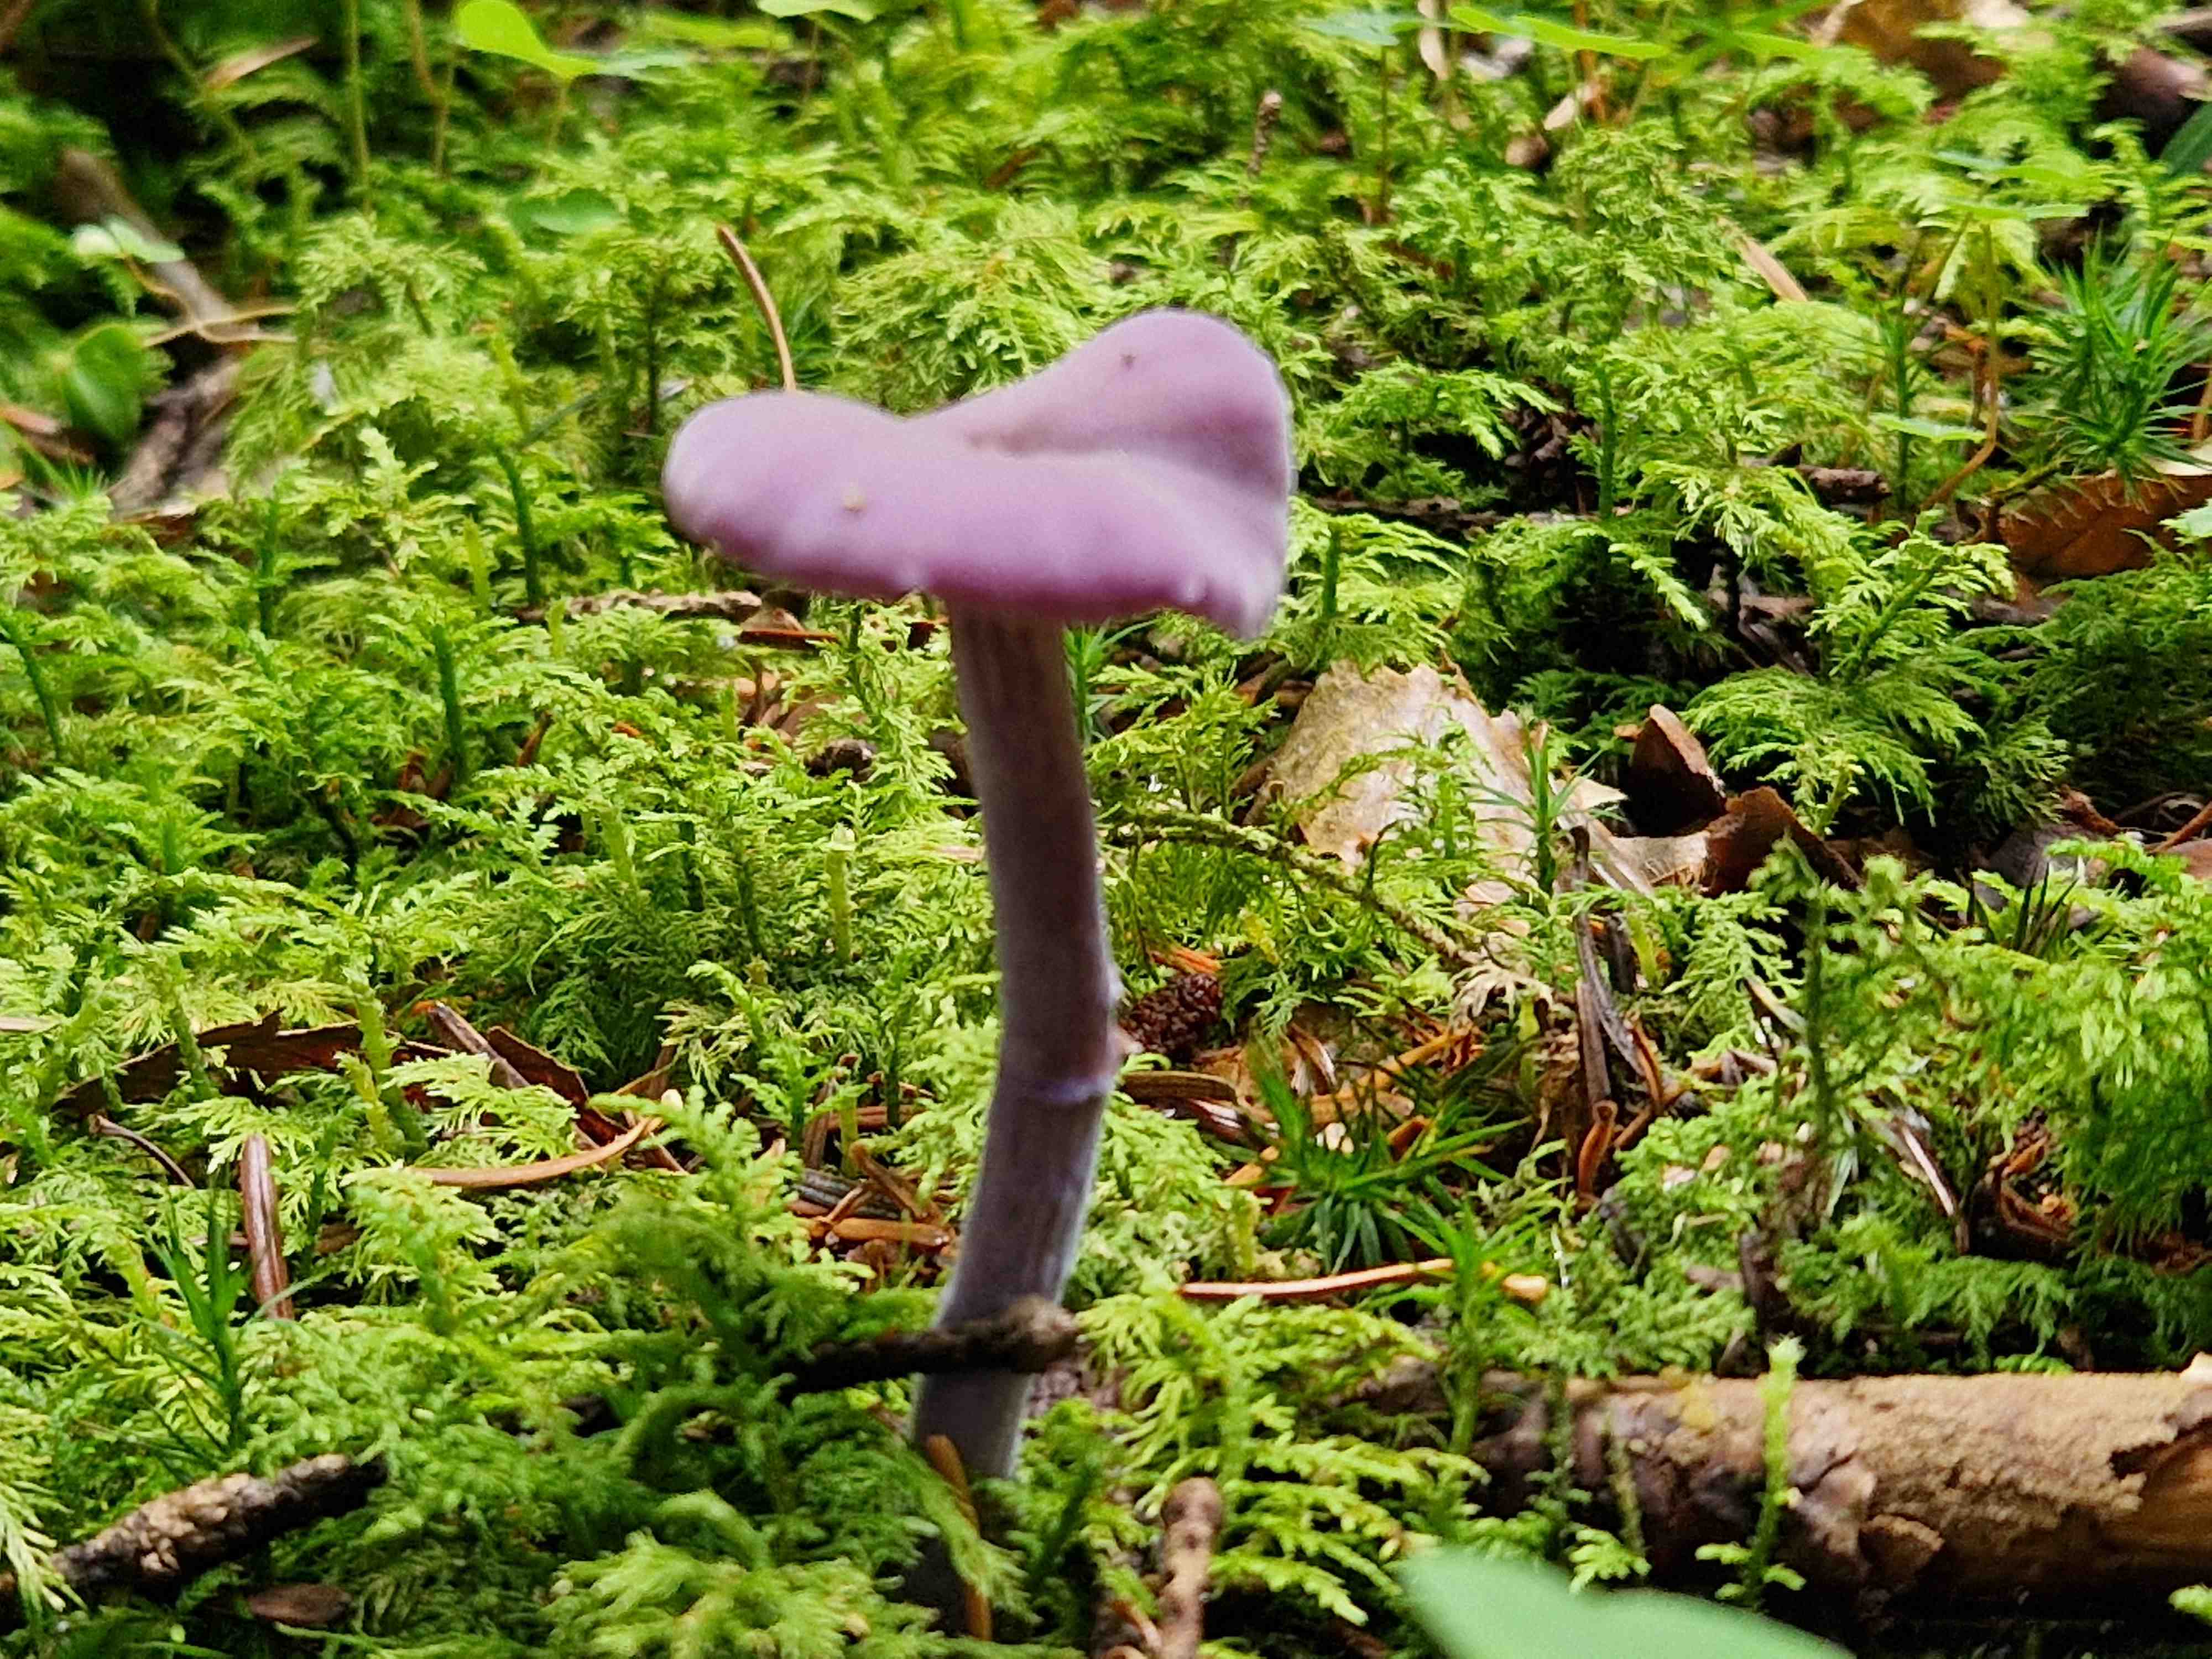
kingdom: Fungi
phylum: Basidiomycota
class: Agaricomycetes
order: Agaricales
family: Hydnangiaceae
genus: Laccaria
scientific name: Laccaria amethystina
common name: violet ametysthat
